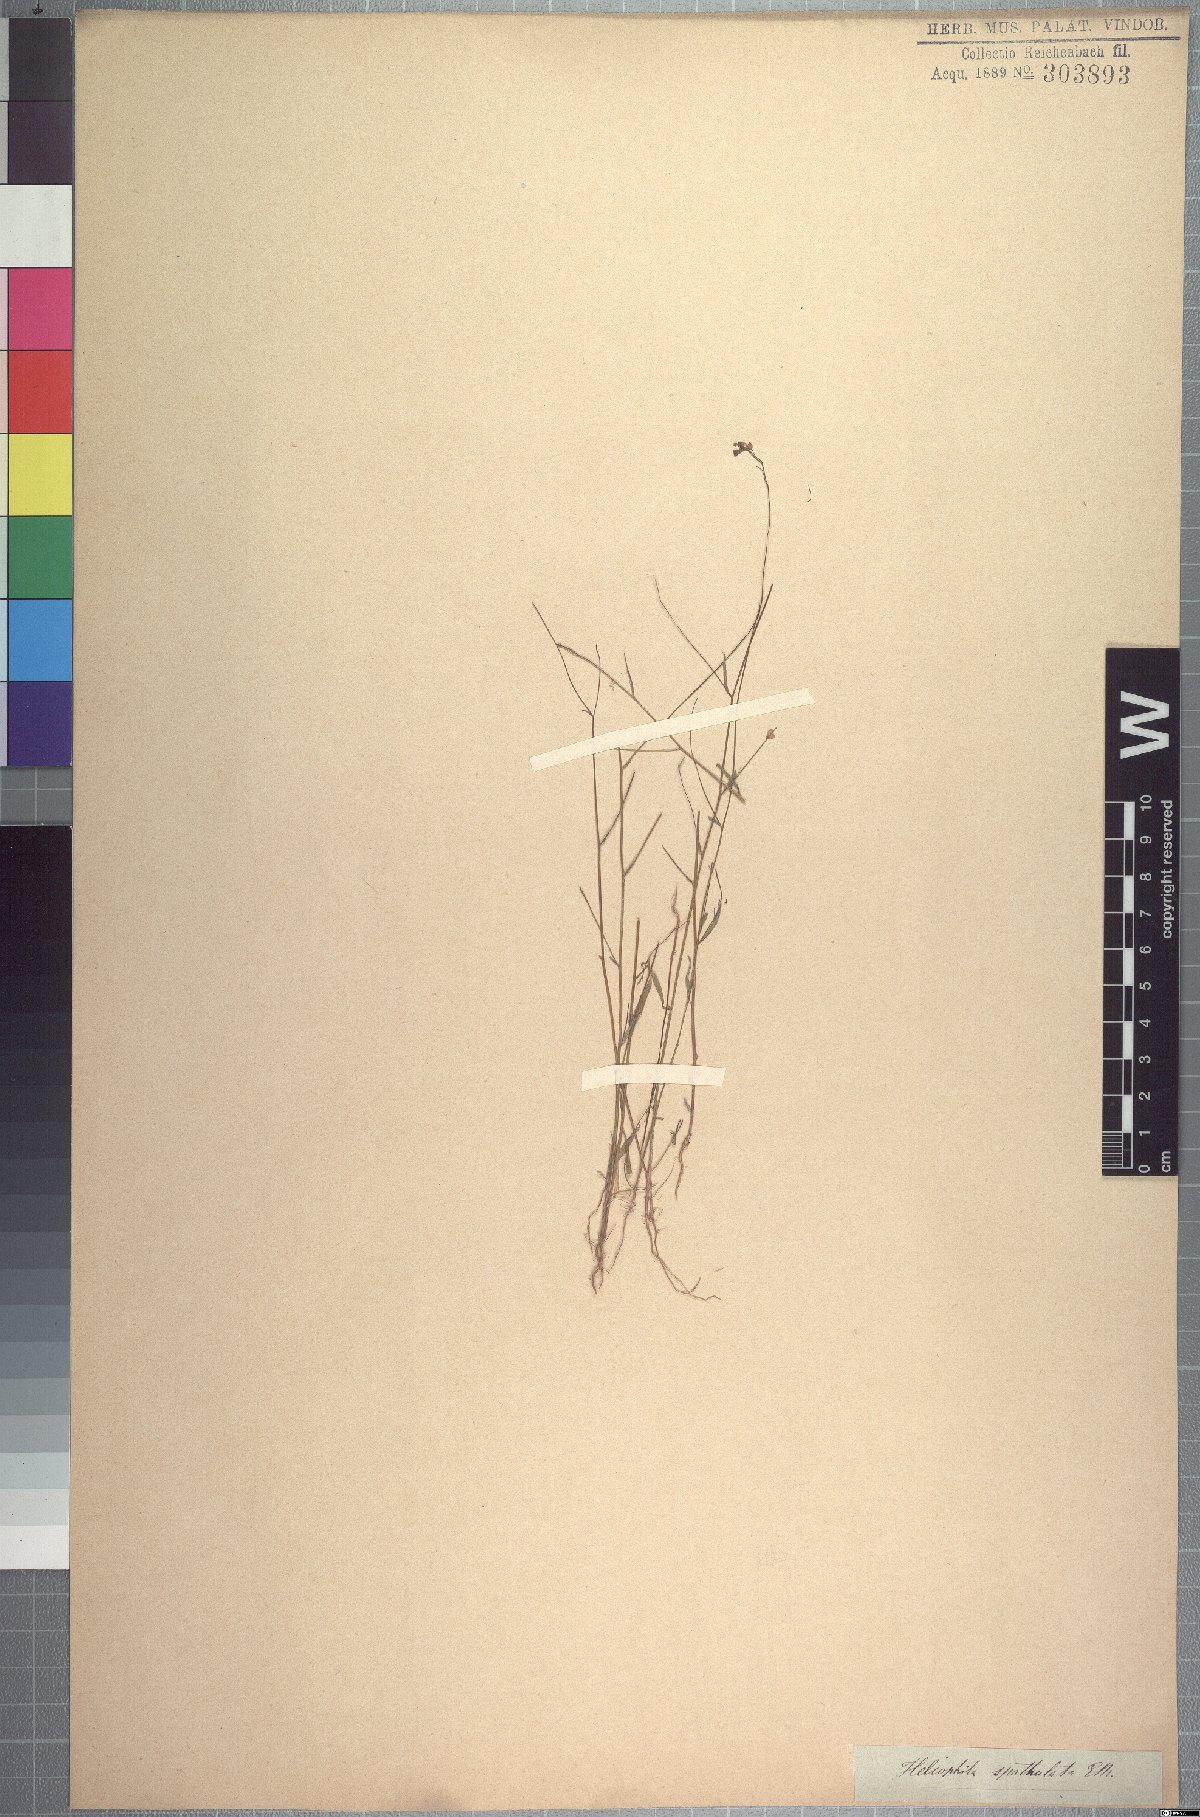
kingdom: Plantae
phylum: Tracheophyta
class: Magnoliopsida
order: Brassicales
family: Brassicaceae
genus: Heliophila
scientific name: Heliophila amplexicaulis
